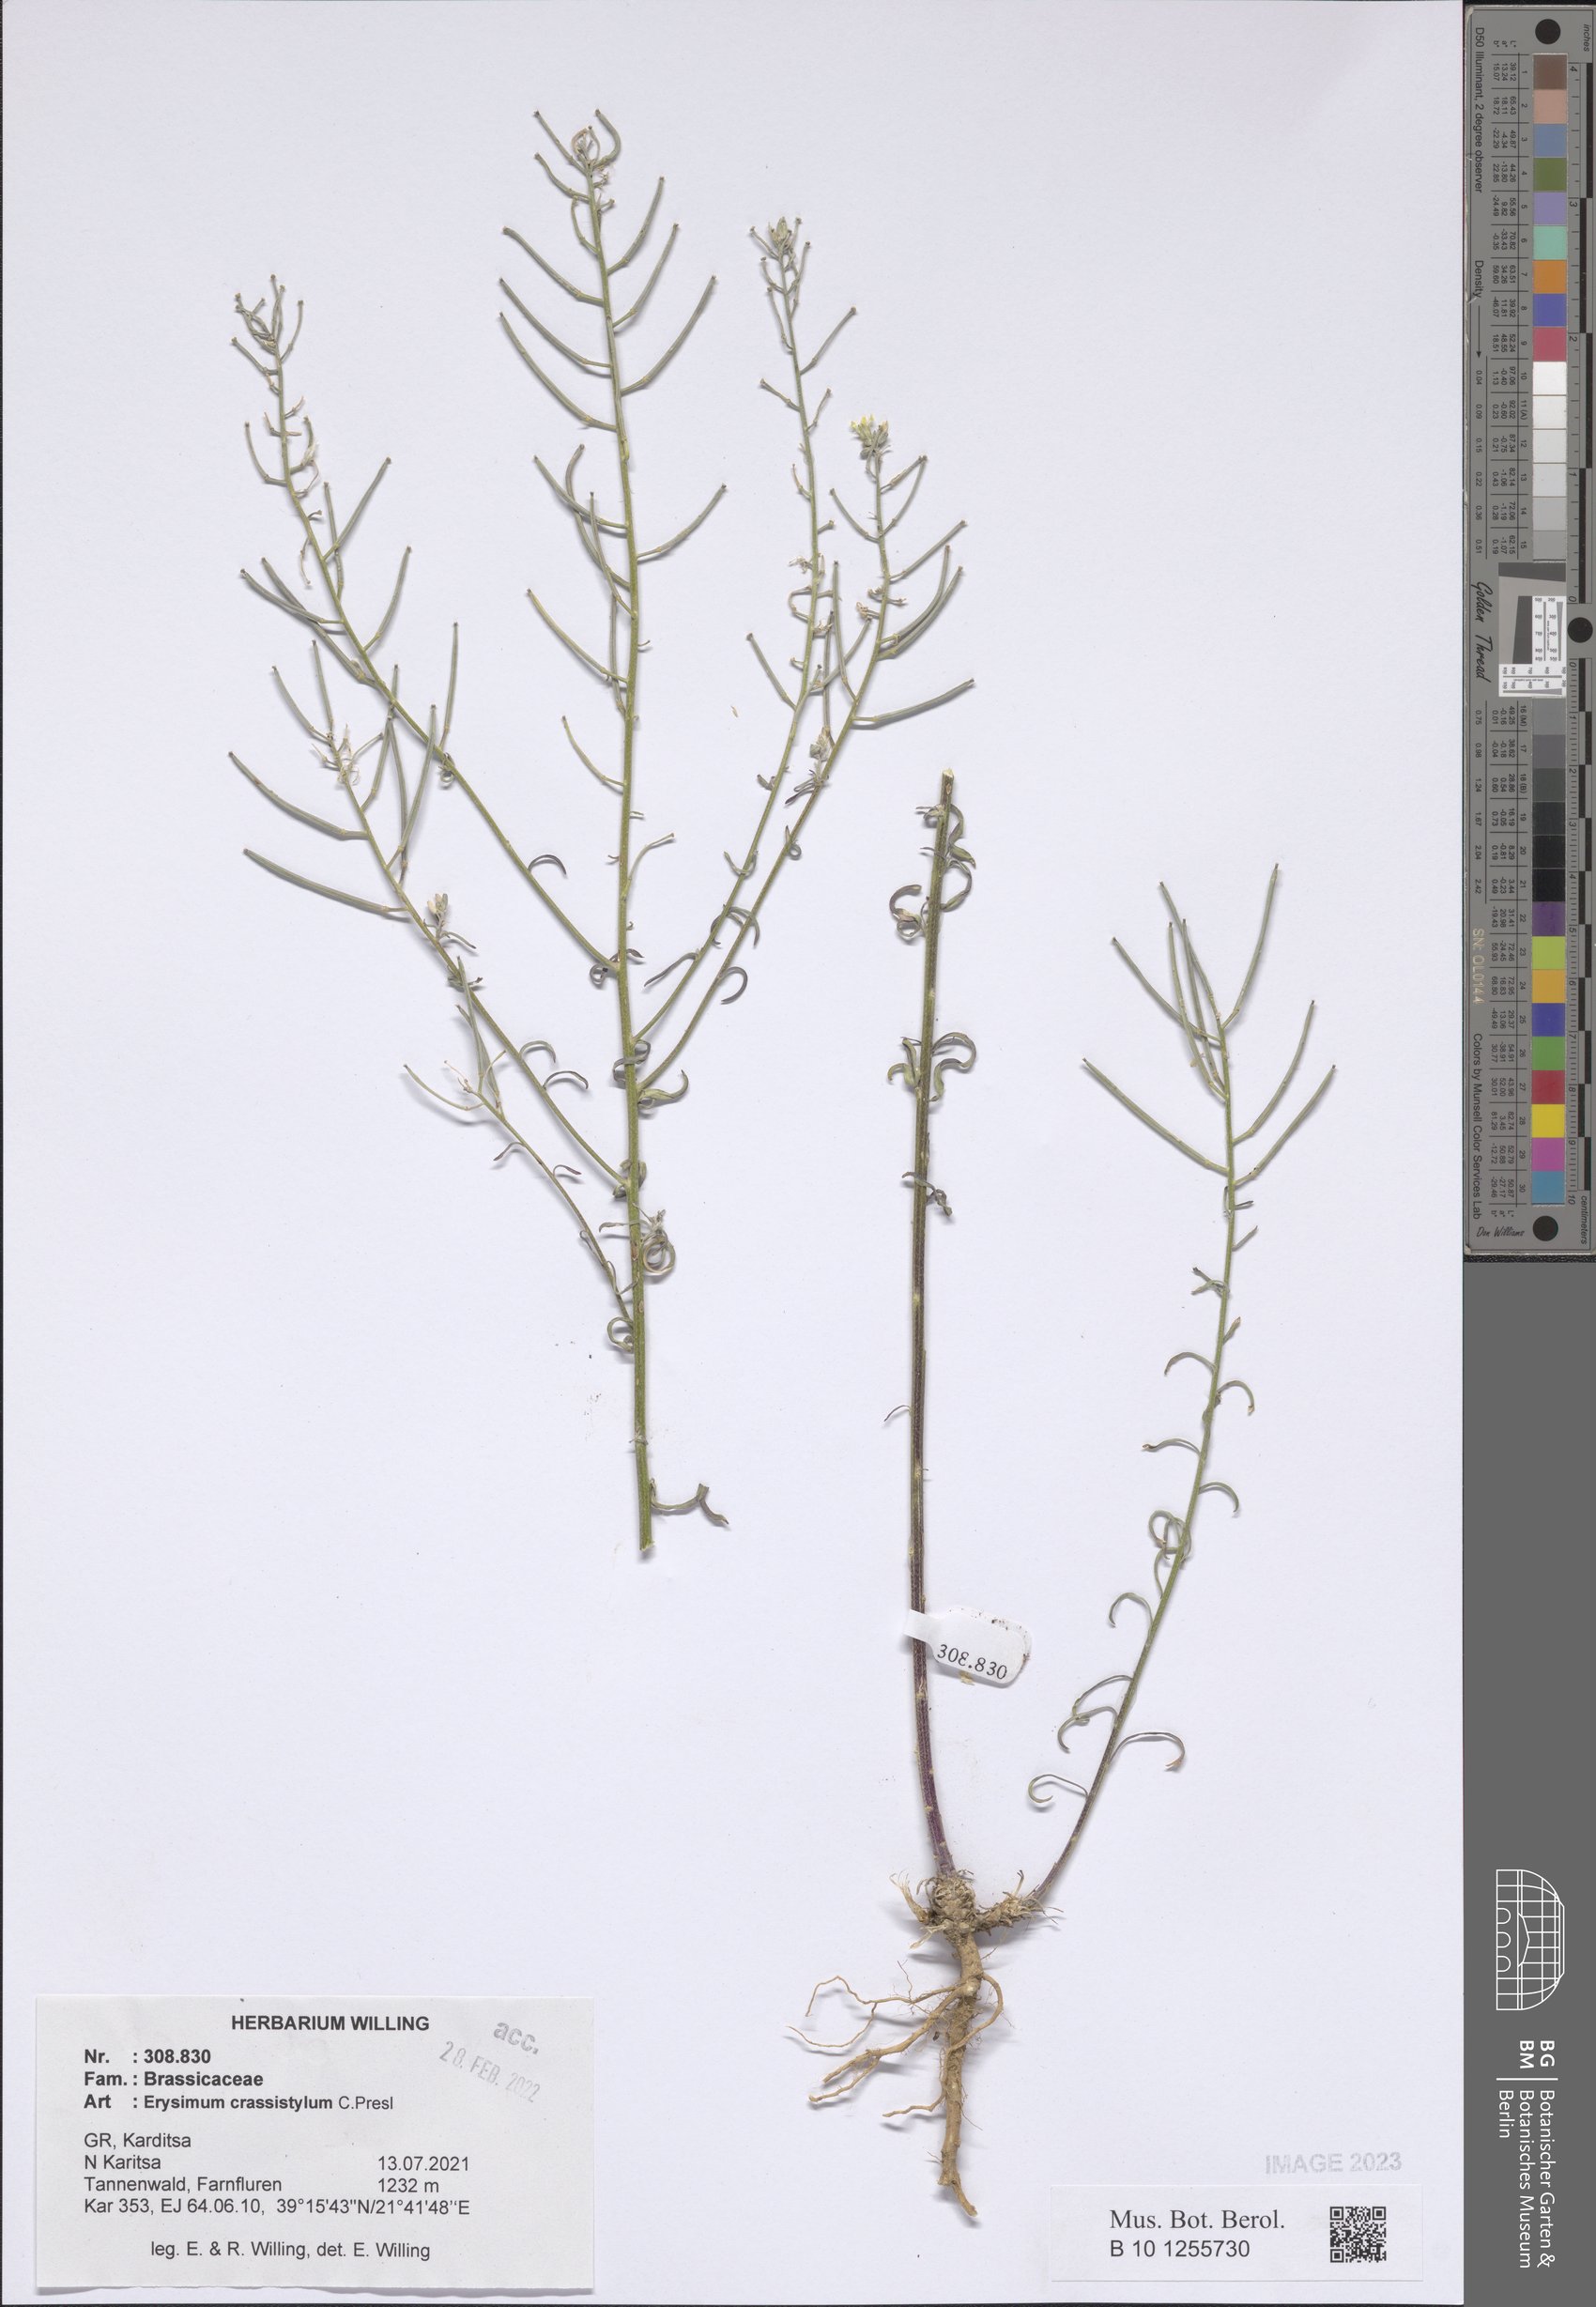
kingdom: Plantae
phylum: Tracheophyta
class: Magnoliopsida
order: Brassicales
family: Brassicaceae
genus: Erysimum
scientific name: Erysimum crassistylum
